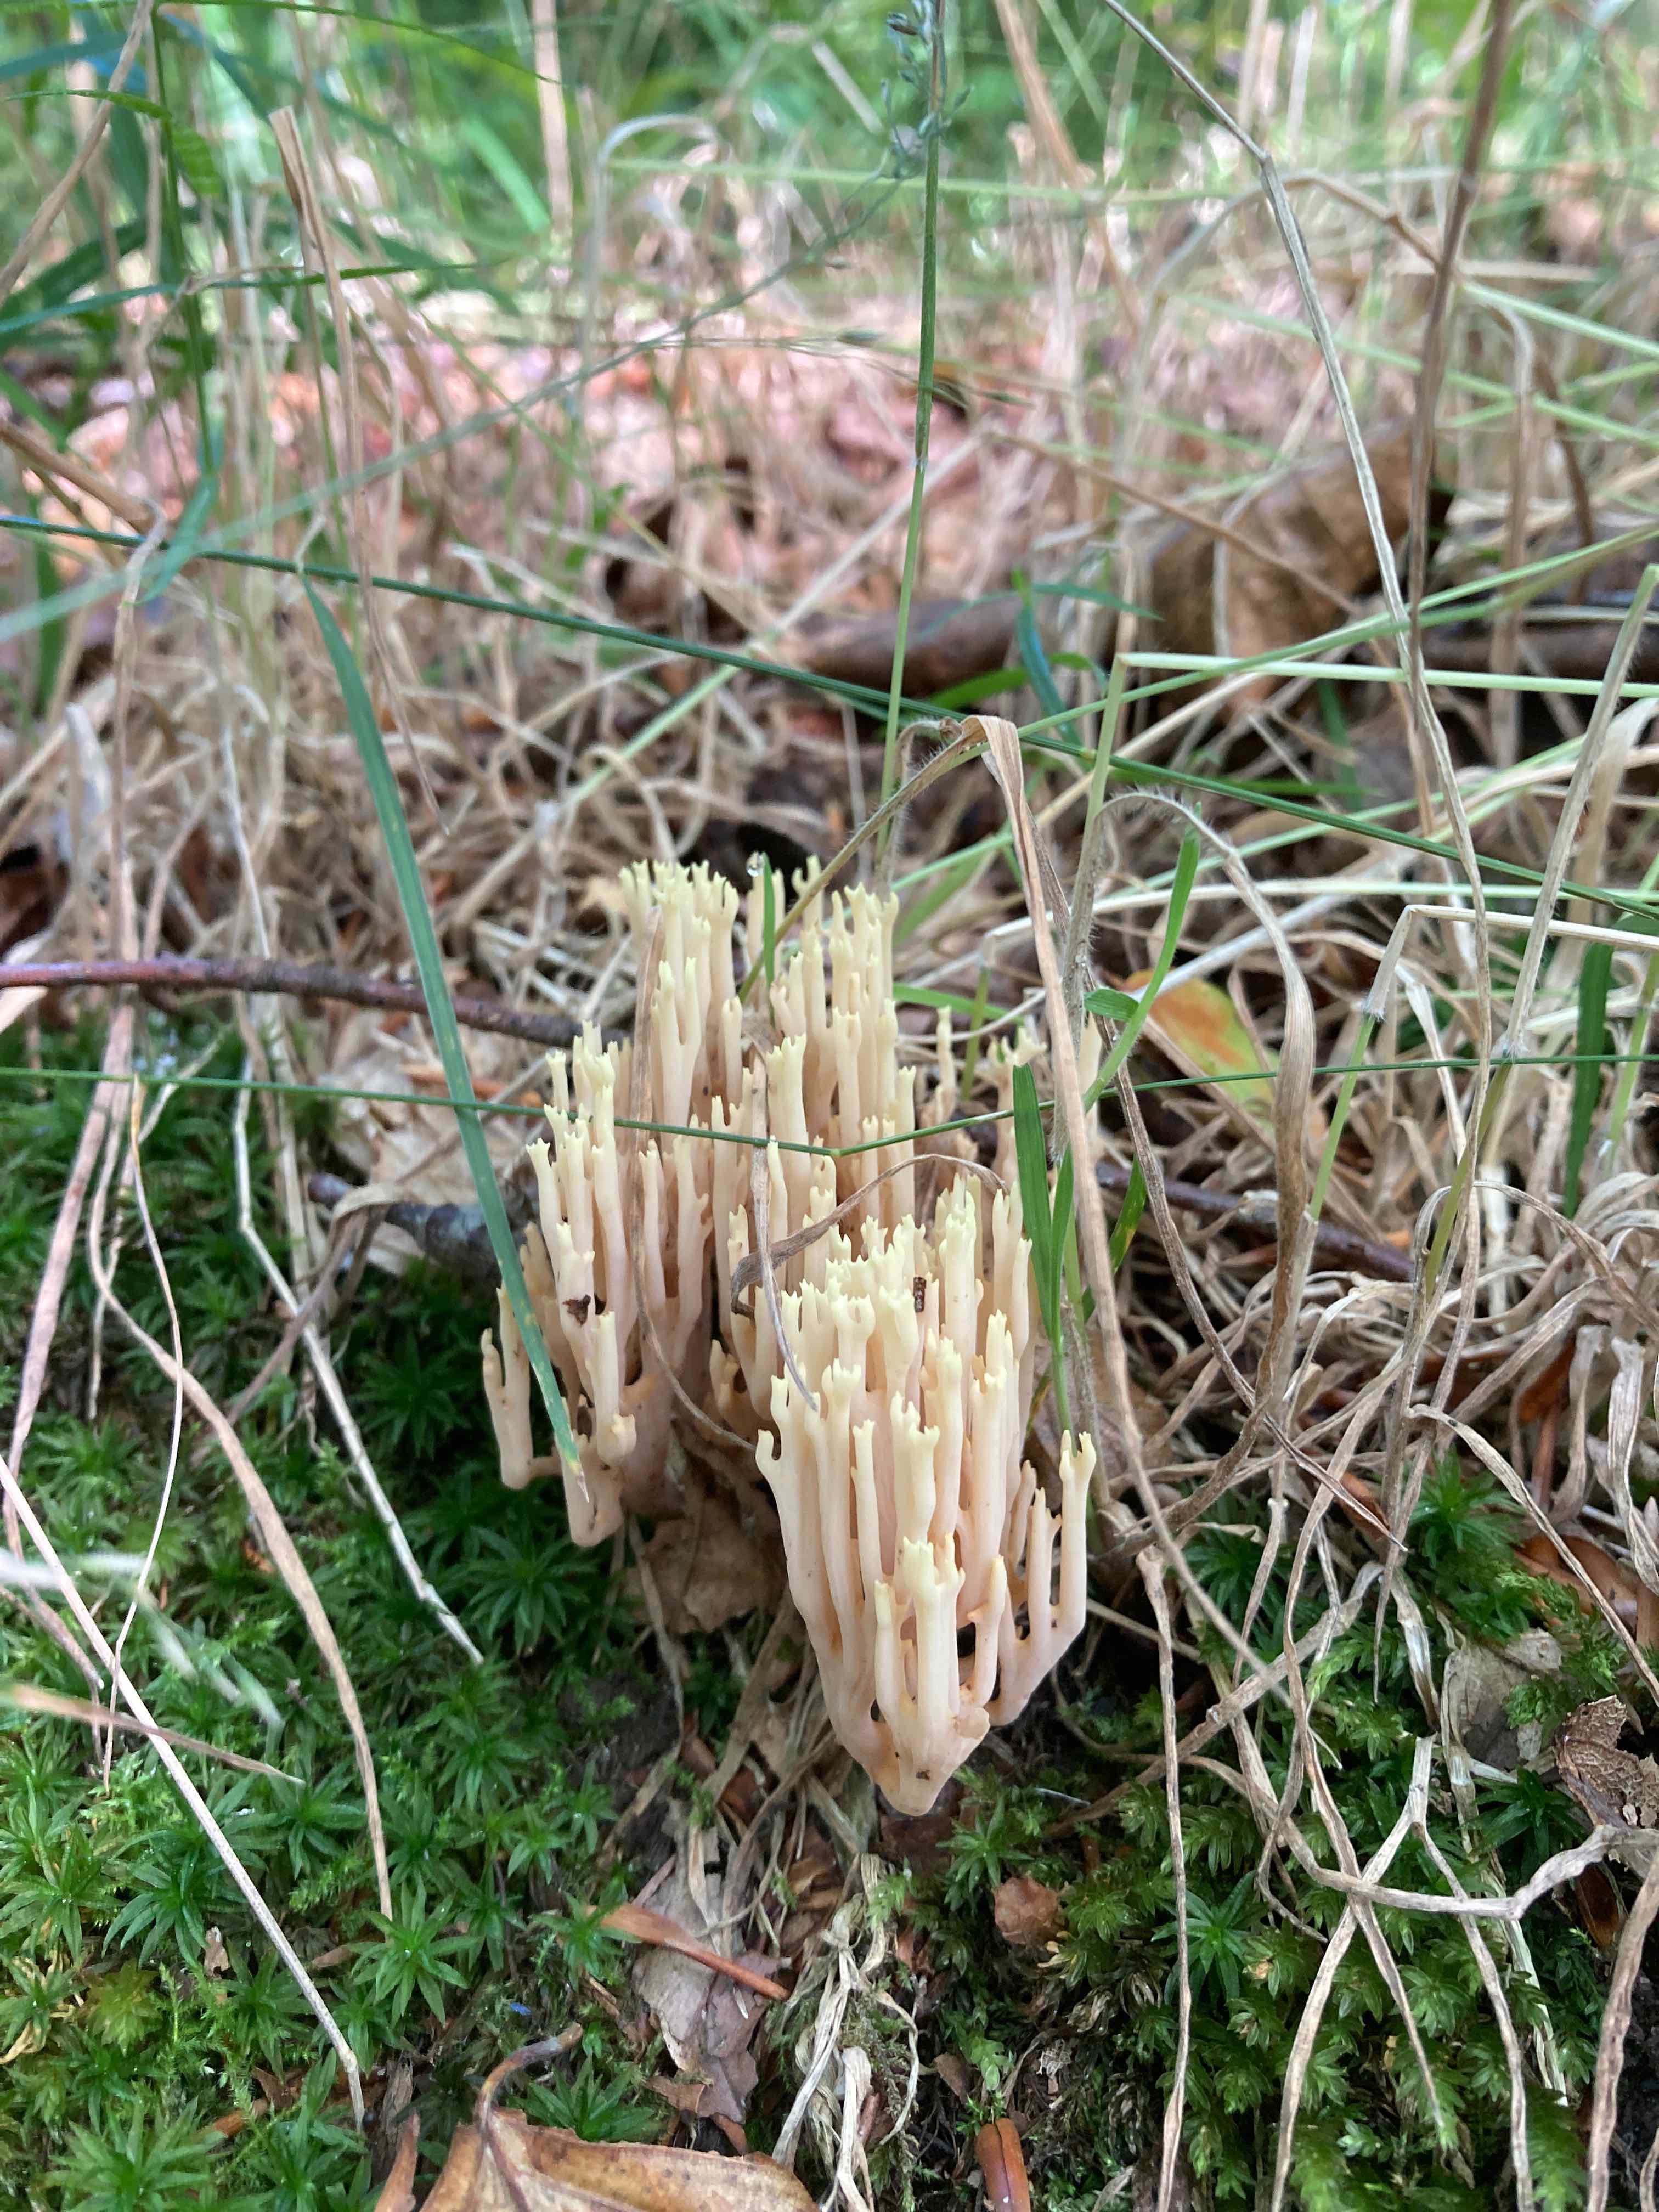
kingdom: Fungi
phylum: Basidiomycota
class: Agaricomycetes
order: Gomphales
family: Gomphaceae
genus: Ramaria
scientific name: Ramaria stricta
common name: rank koralsvamp
